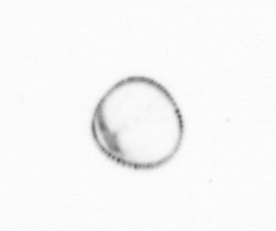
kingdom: Chromista
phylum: Myzozoa
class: Dinophyceae
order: Noctilucales
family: Noctilucaceae
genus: Noctiluca
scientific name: Noctiluca scintillans
